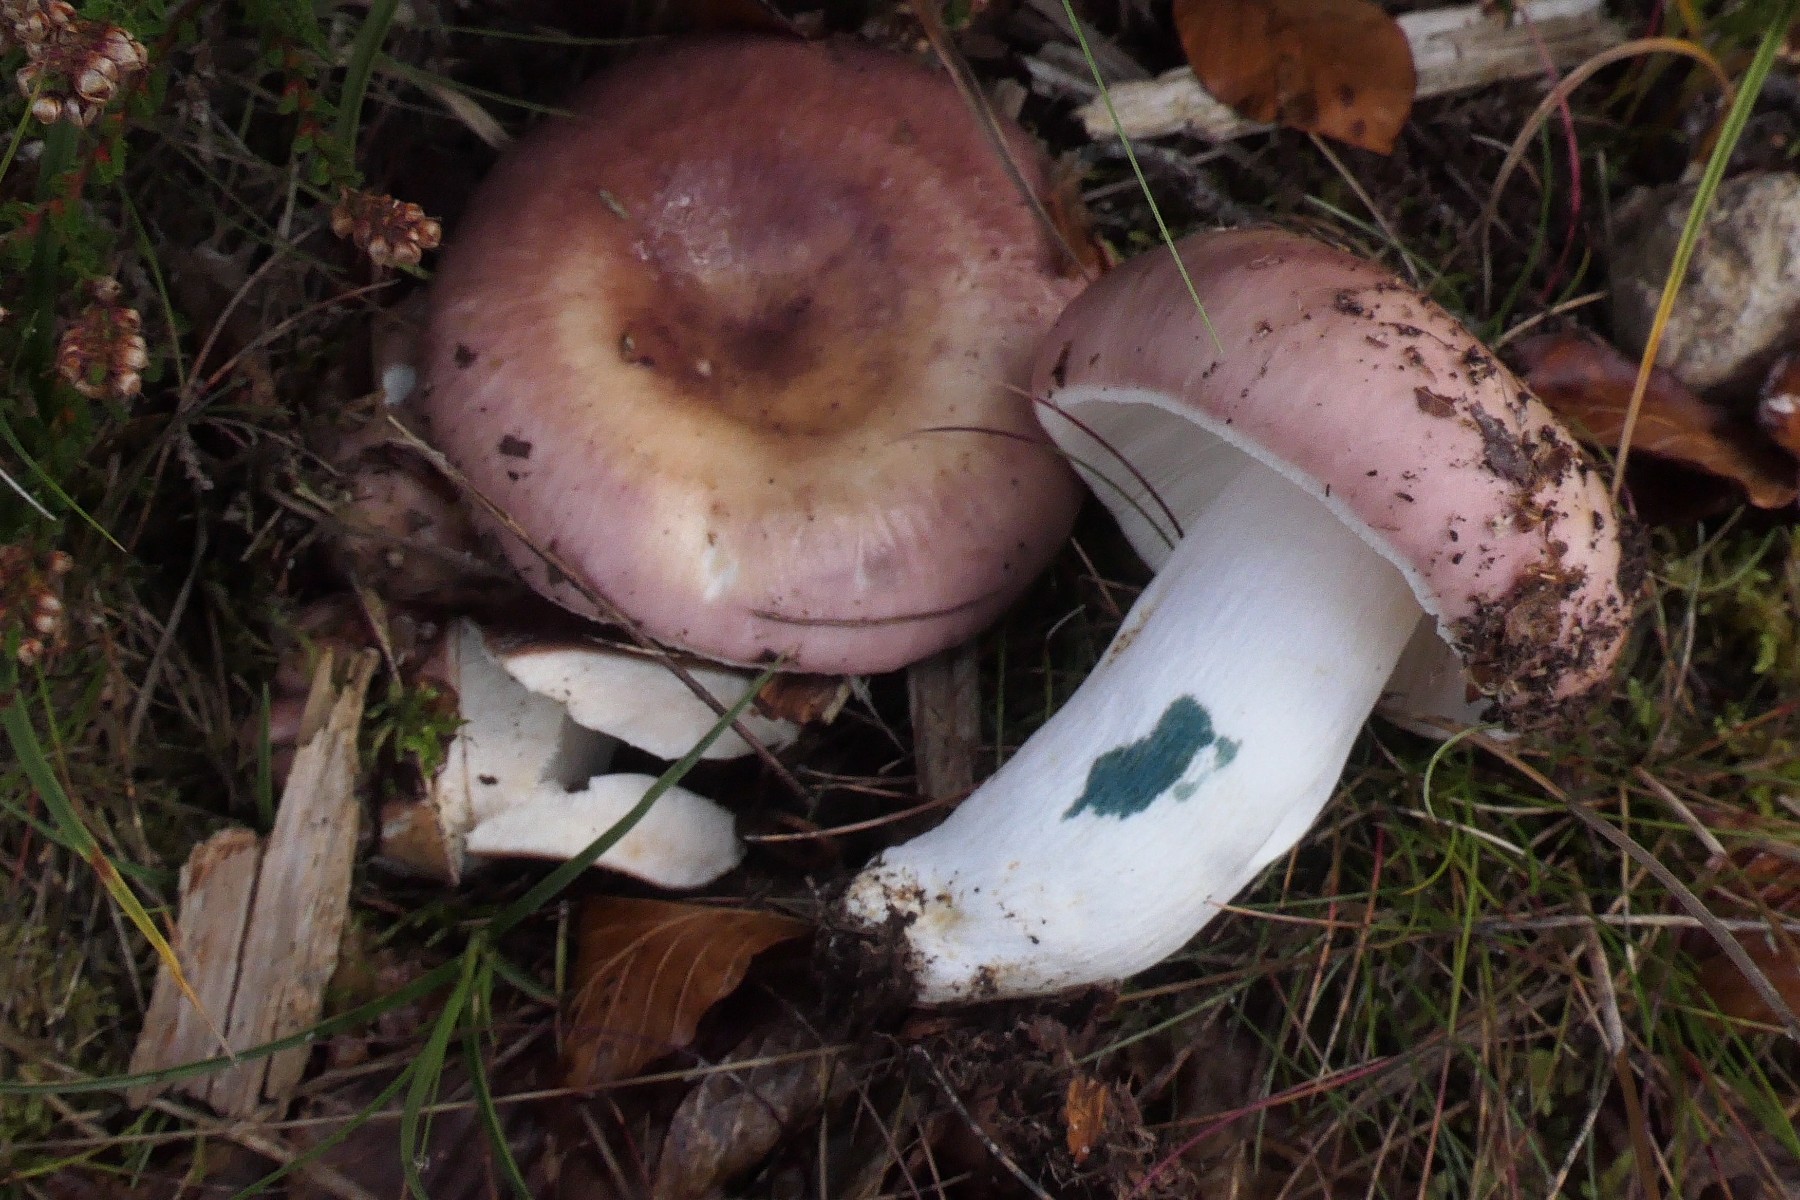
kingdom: Fungi
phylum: Basidiomycota
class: Agaricomycetes
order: Russulales
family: Russulaceae
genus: Russula
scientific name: Russula vesca
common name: spiselig skørhat
